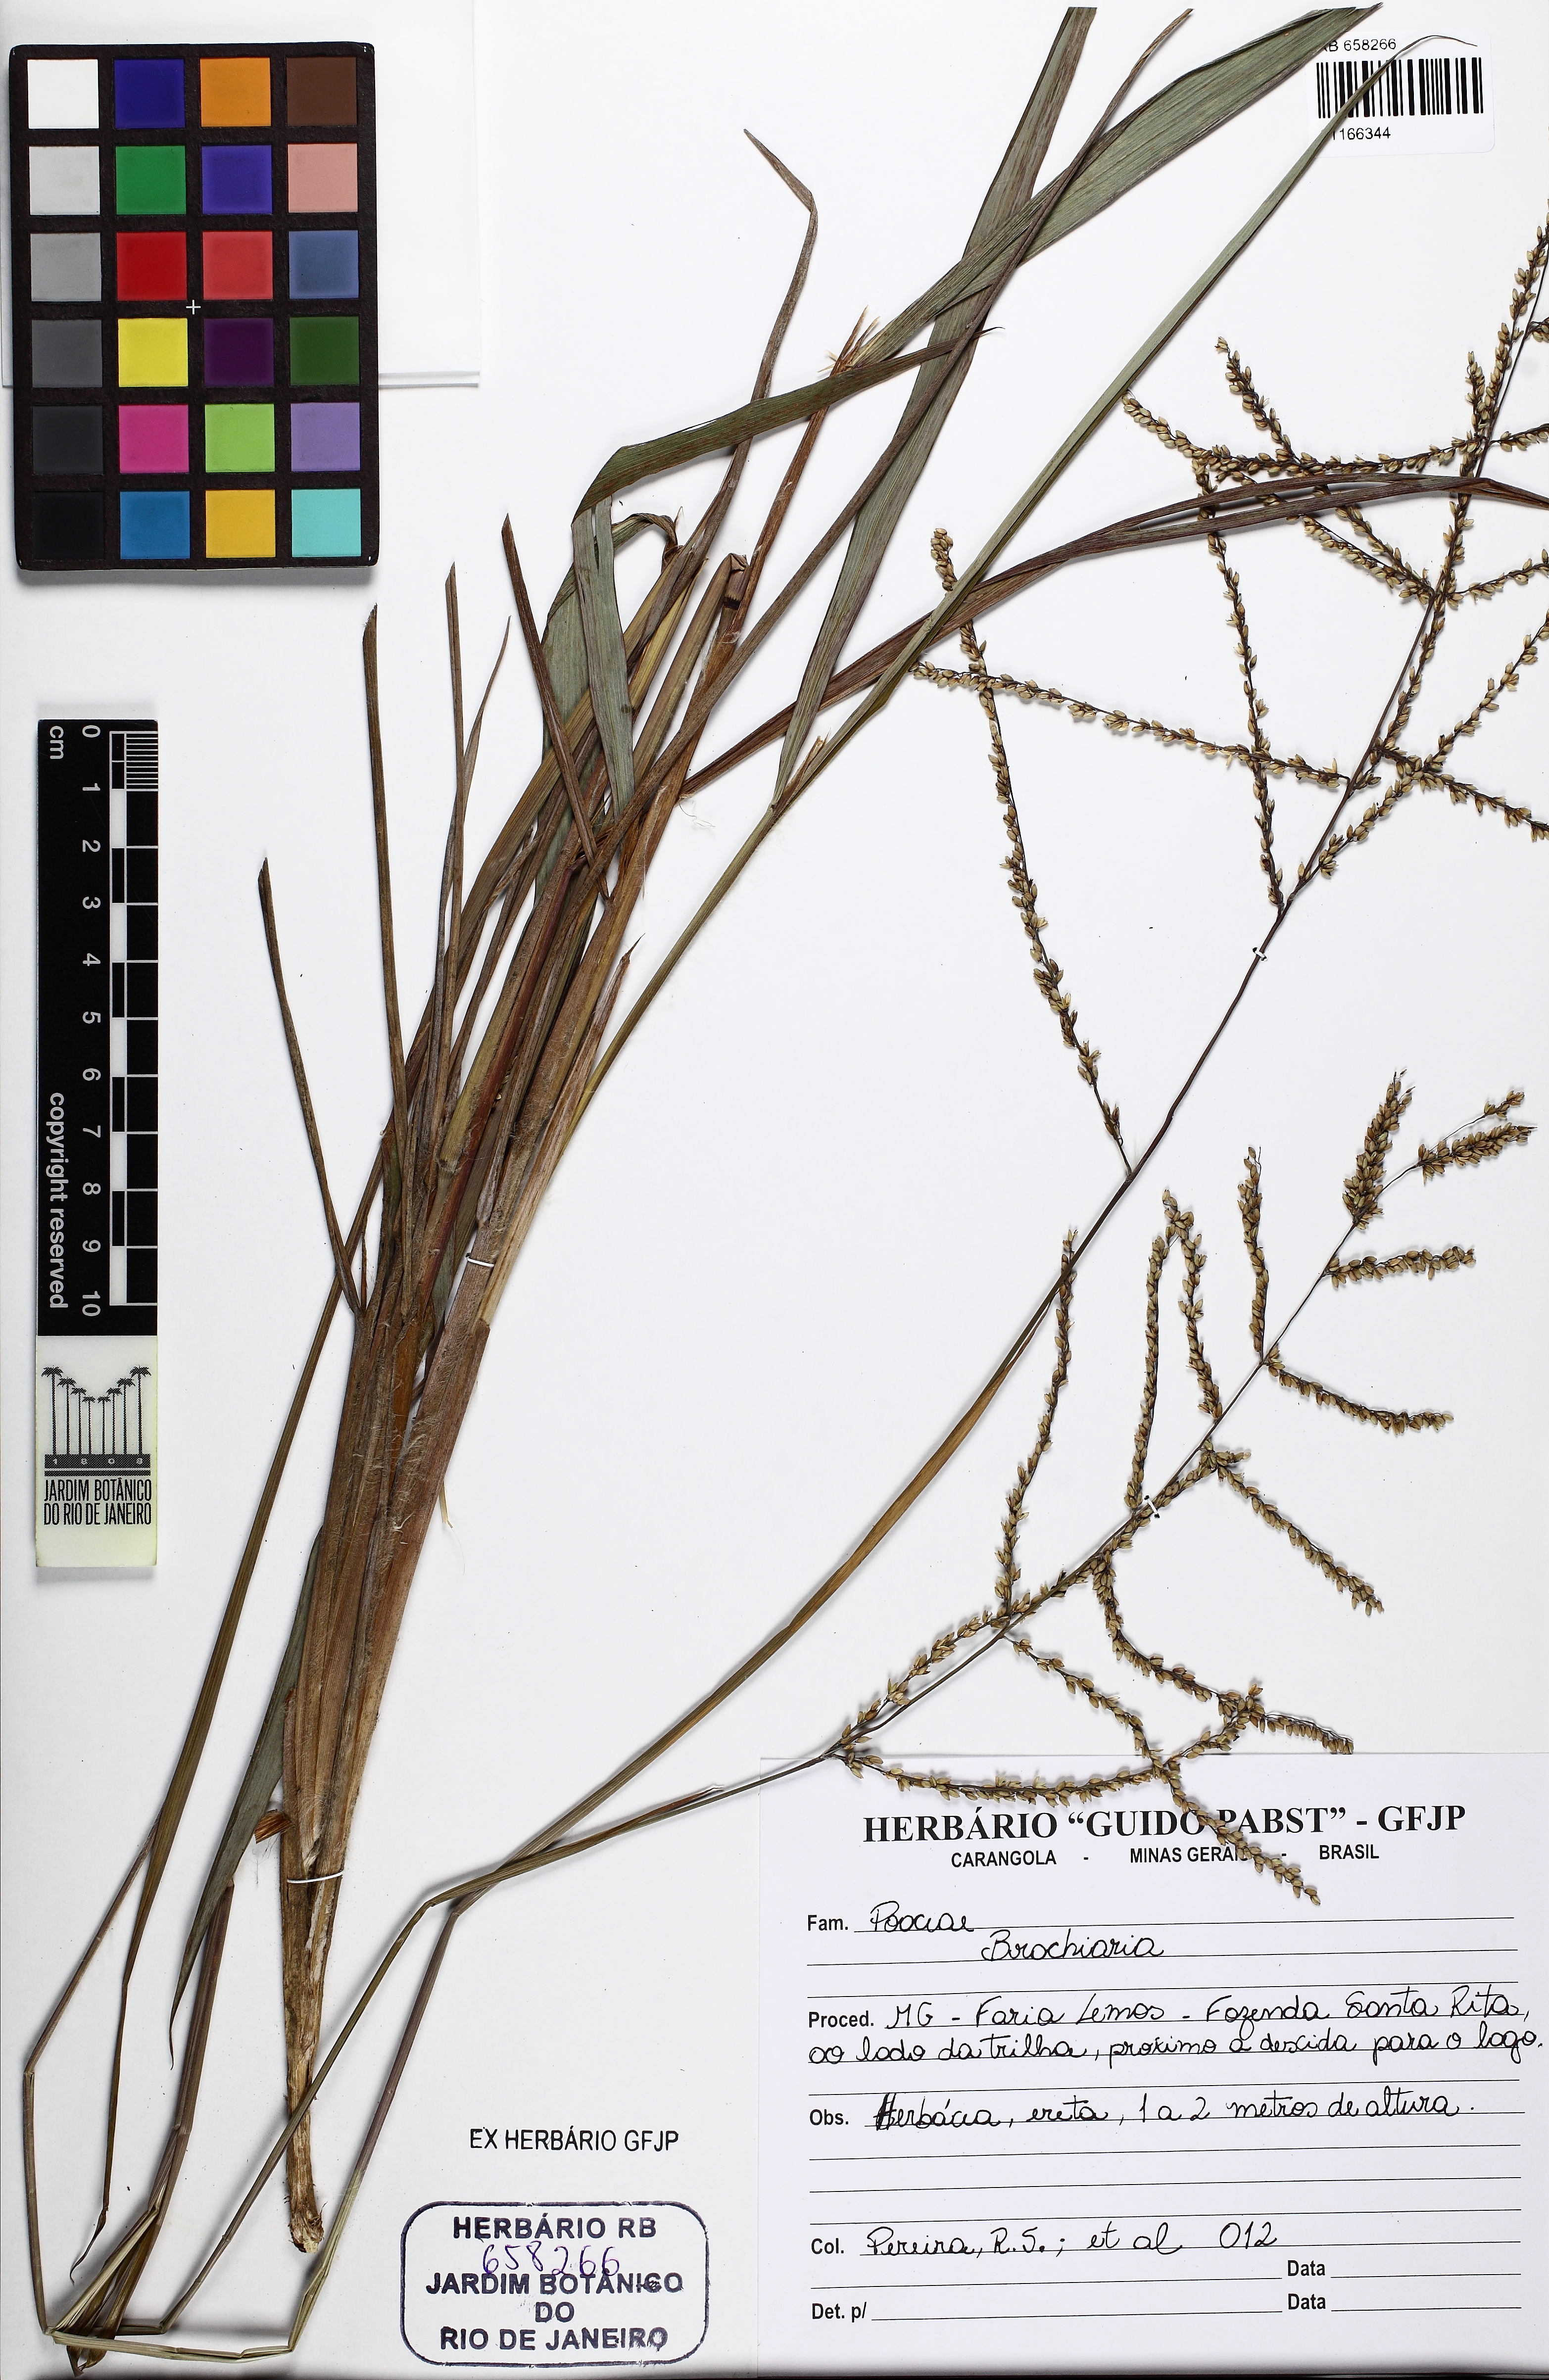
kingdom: Plantae
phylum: Tracheophyta
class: Liliopsida
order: Poales
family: Poaceae
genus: Brachiaria
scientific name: Brachiaria
